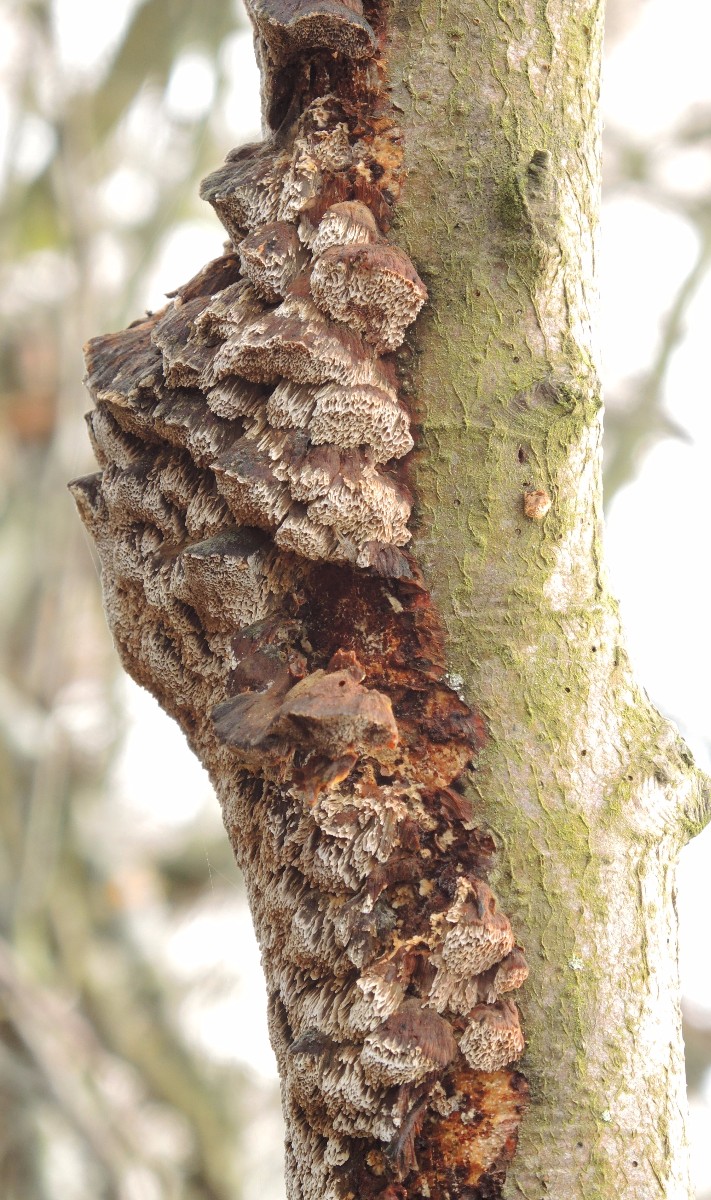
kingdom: Fungi
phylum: Basidiomycota
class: Agaricomycetes
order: Hymenochaetales
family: Hymenochaetaceae
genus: Mensularia
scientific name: Mensularia nodulosa
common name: bøge-spejlporesvamp
